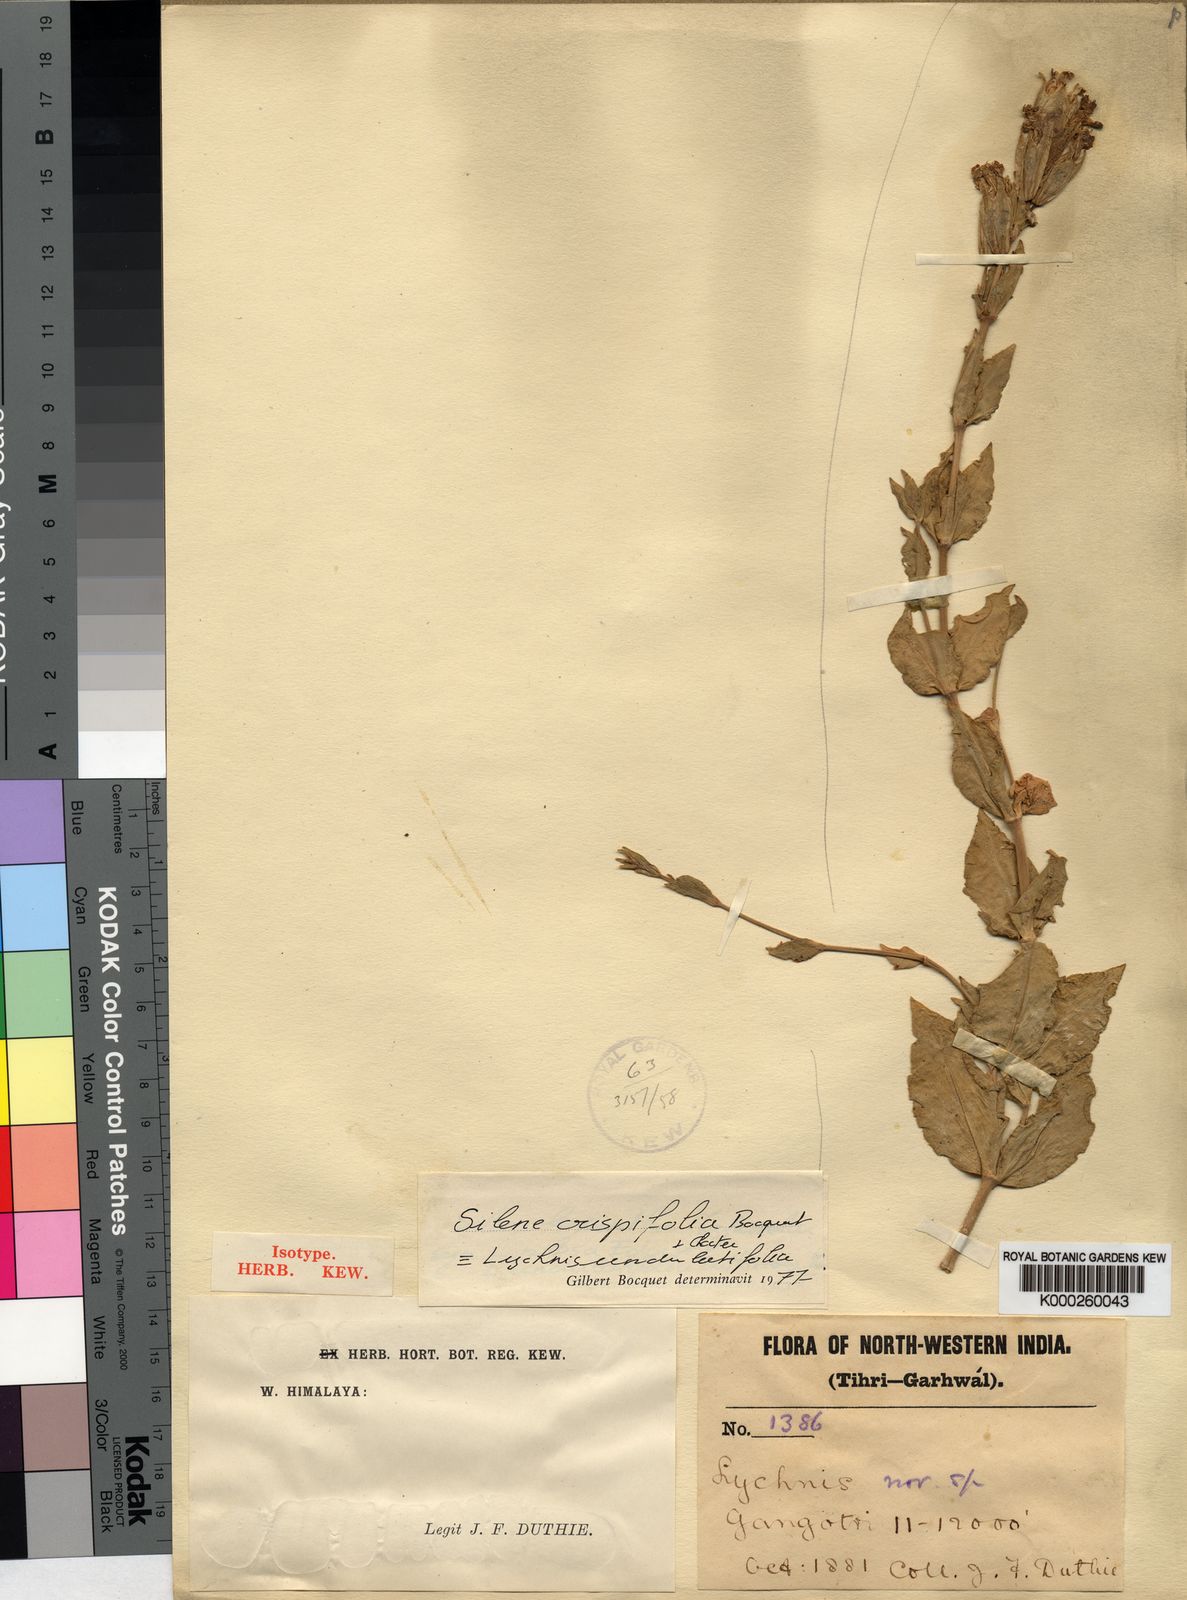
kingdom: Plantae
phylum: Tracheophyta
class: Magnoliopsida
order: Caryophyllales
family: Caryophyllaceae
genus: Silene
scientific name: Silene gangotriana
